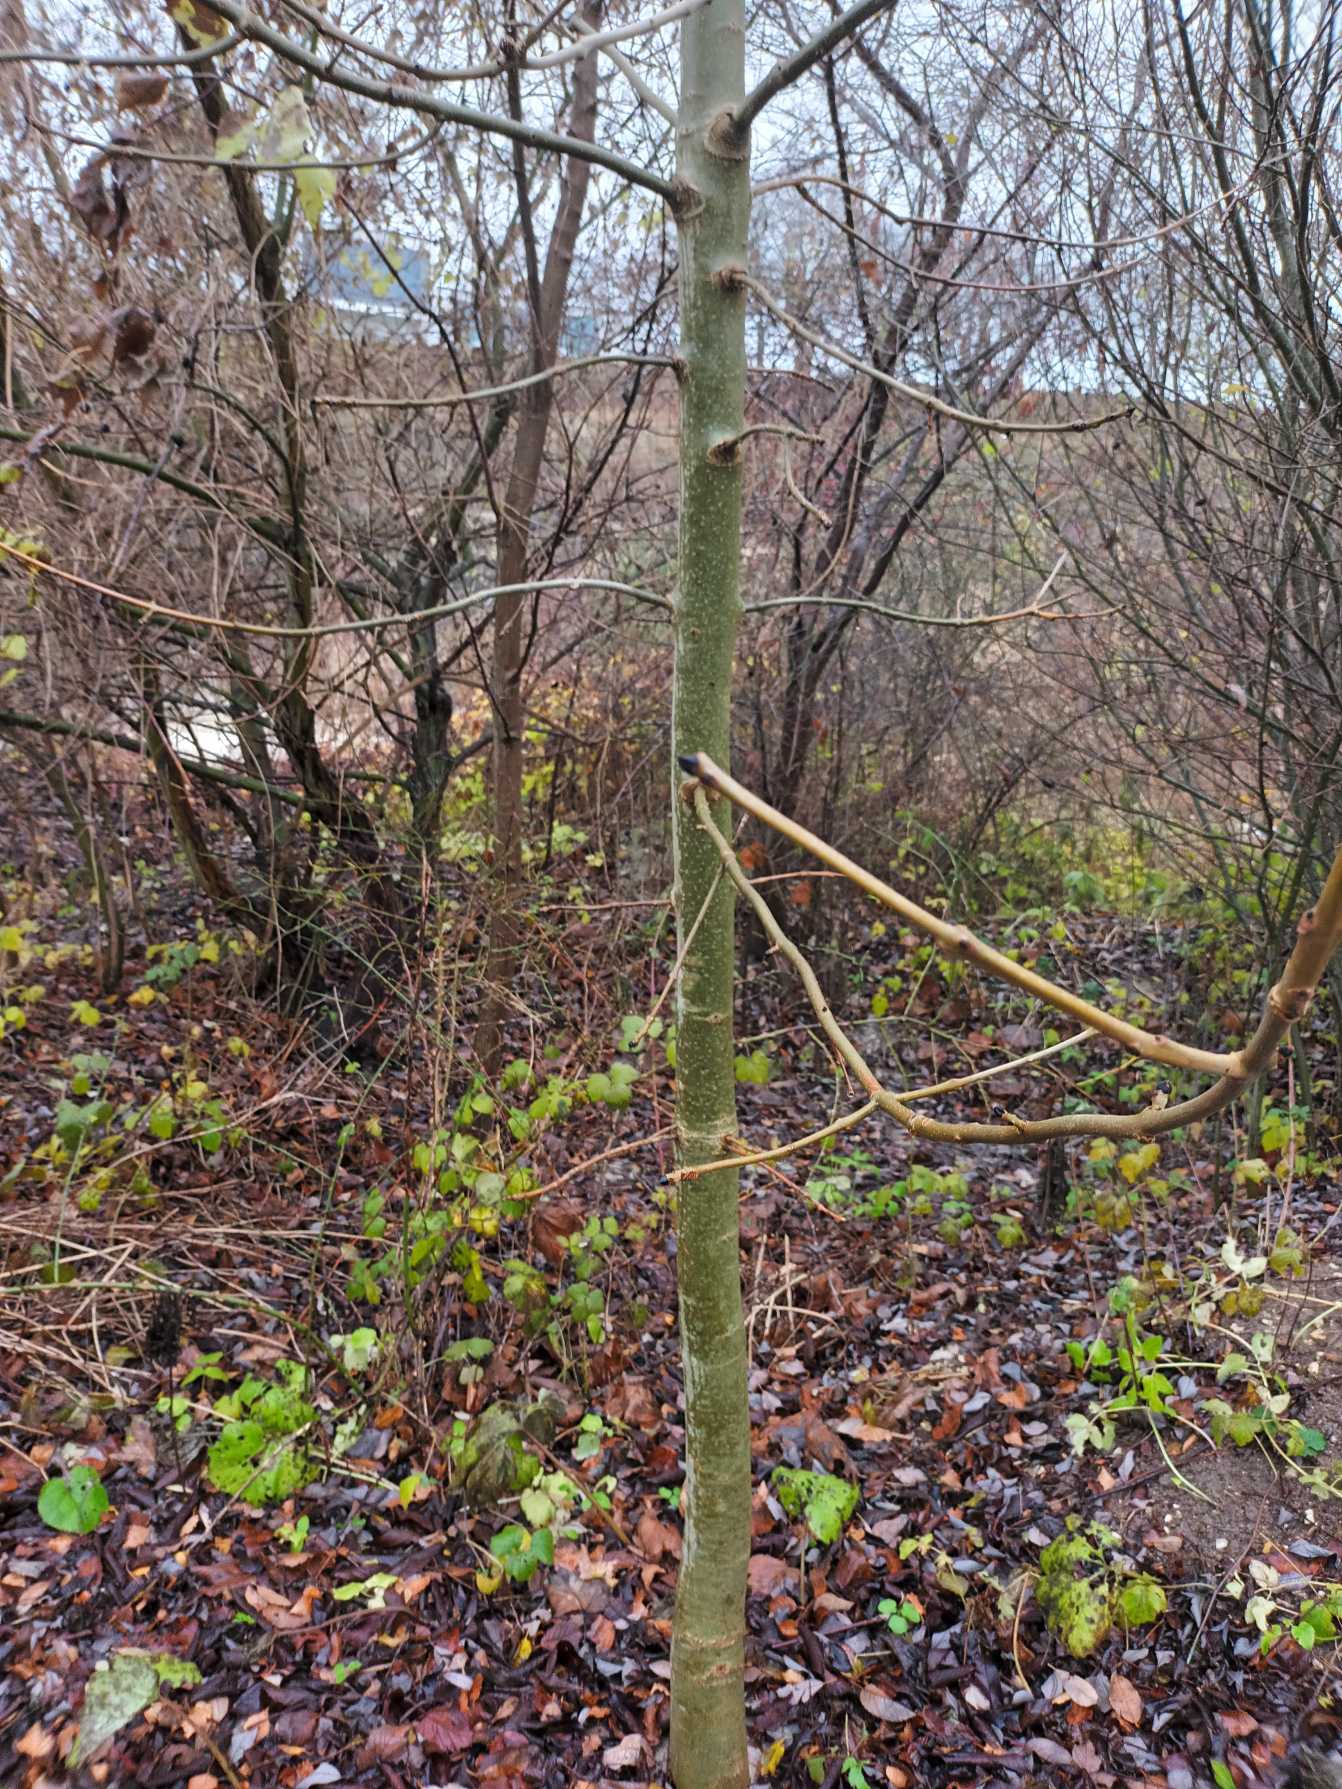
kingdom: Plantae
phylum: Tracheophyta
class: Magnoliopsida
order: Lamiales
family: Oleaceae
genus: Fraxinus
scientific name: Fraxinus excelsior
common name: Ask
